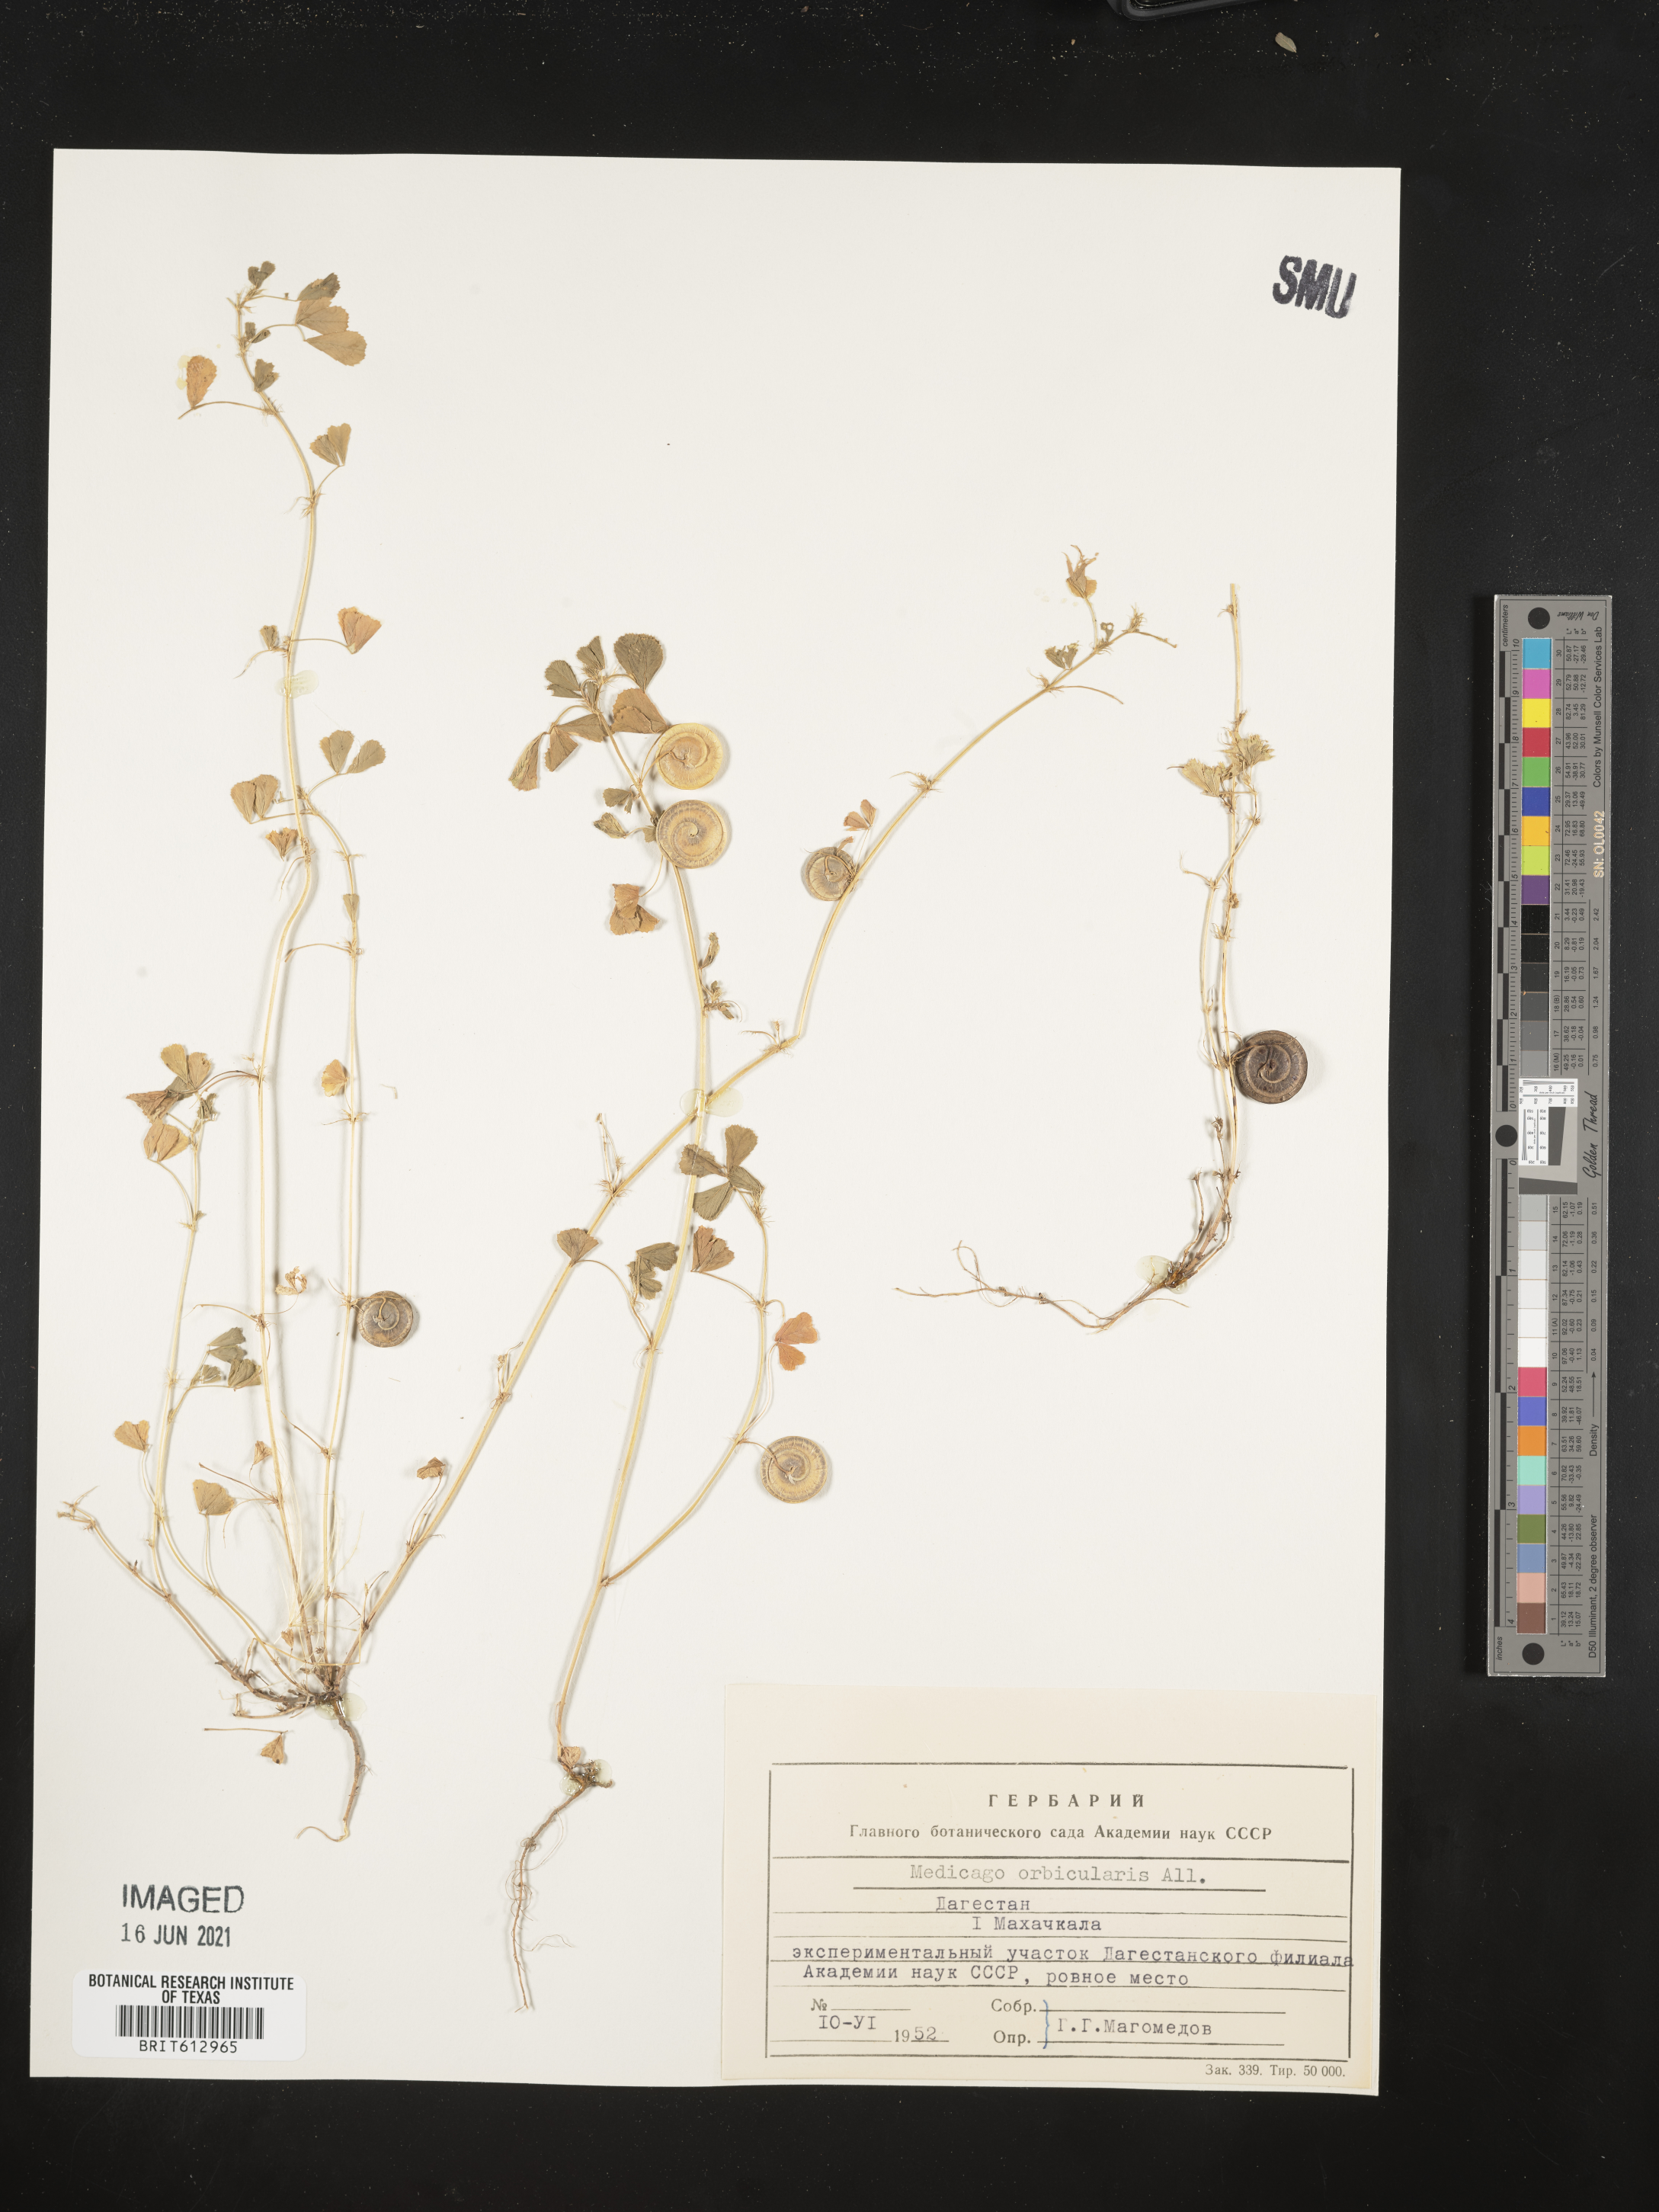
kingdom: Plantae
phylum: Tracheophyta
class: Magnoliopsida
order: Fabales
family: Fabaceae
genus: Medicago
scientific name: Medicago orbicularis
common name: Button medick
